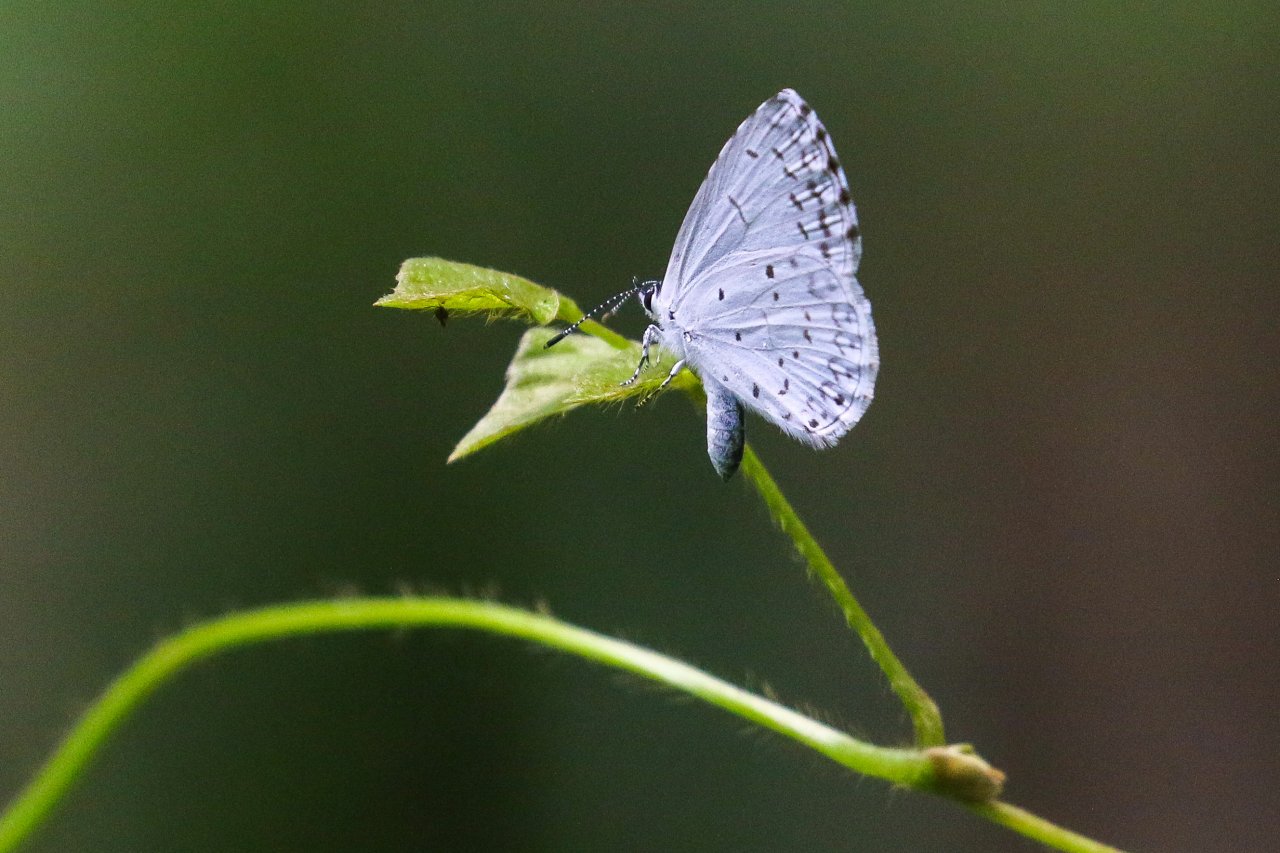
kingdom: Animalia
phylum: Arthropoda
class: Insecta
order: Lepidoptera
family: Lycaenidae
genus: Cyaniris
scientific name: Cyaniris neglecta
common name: Summer Azure
